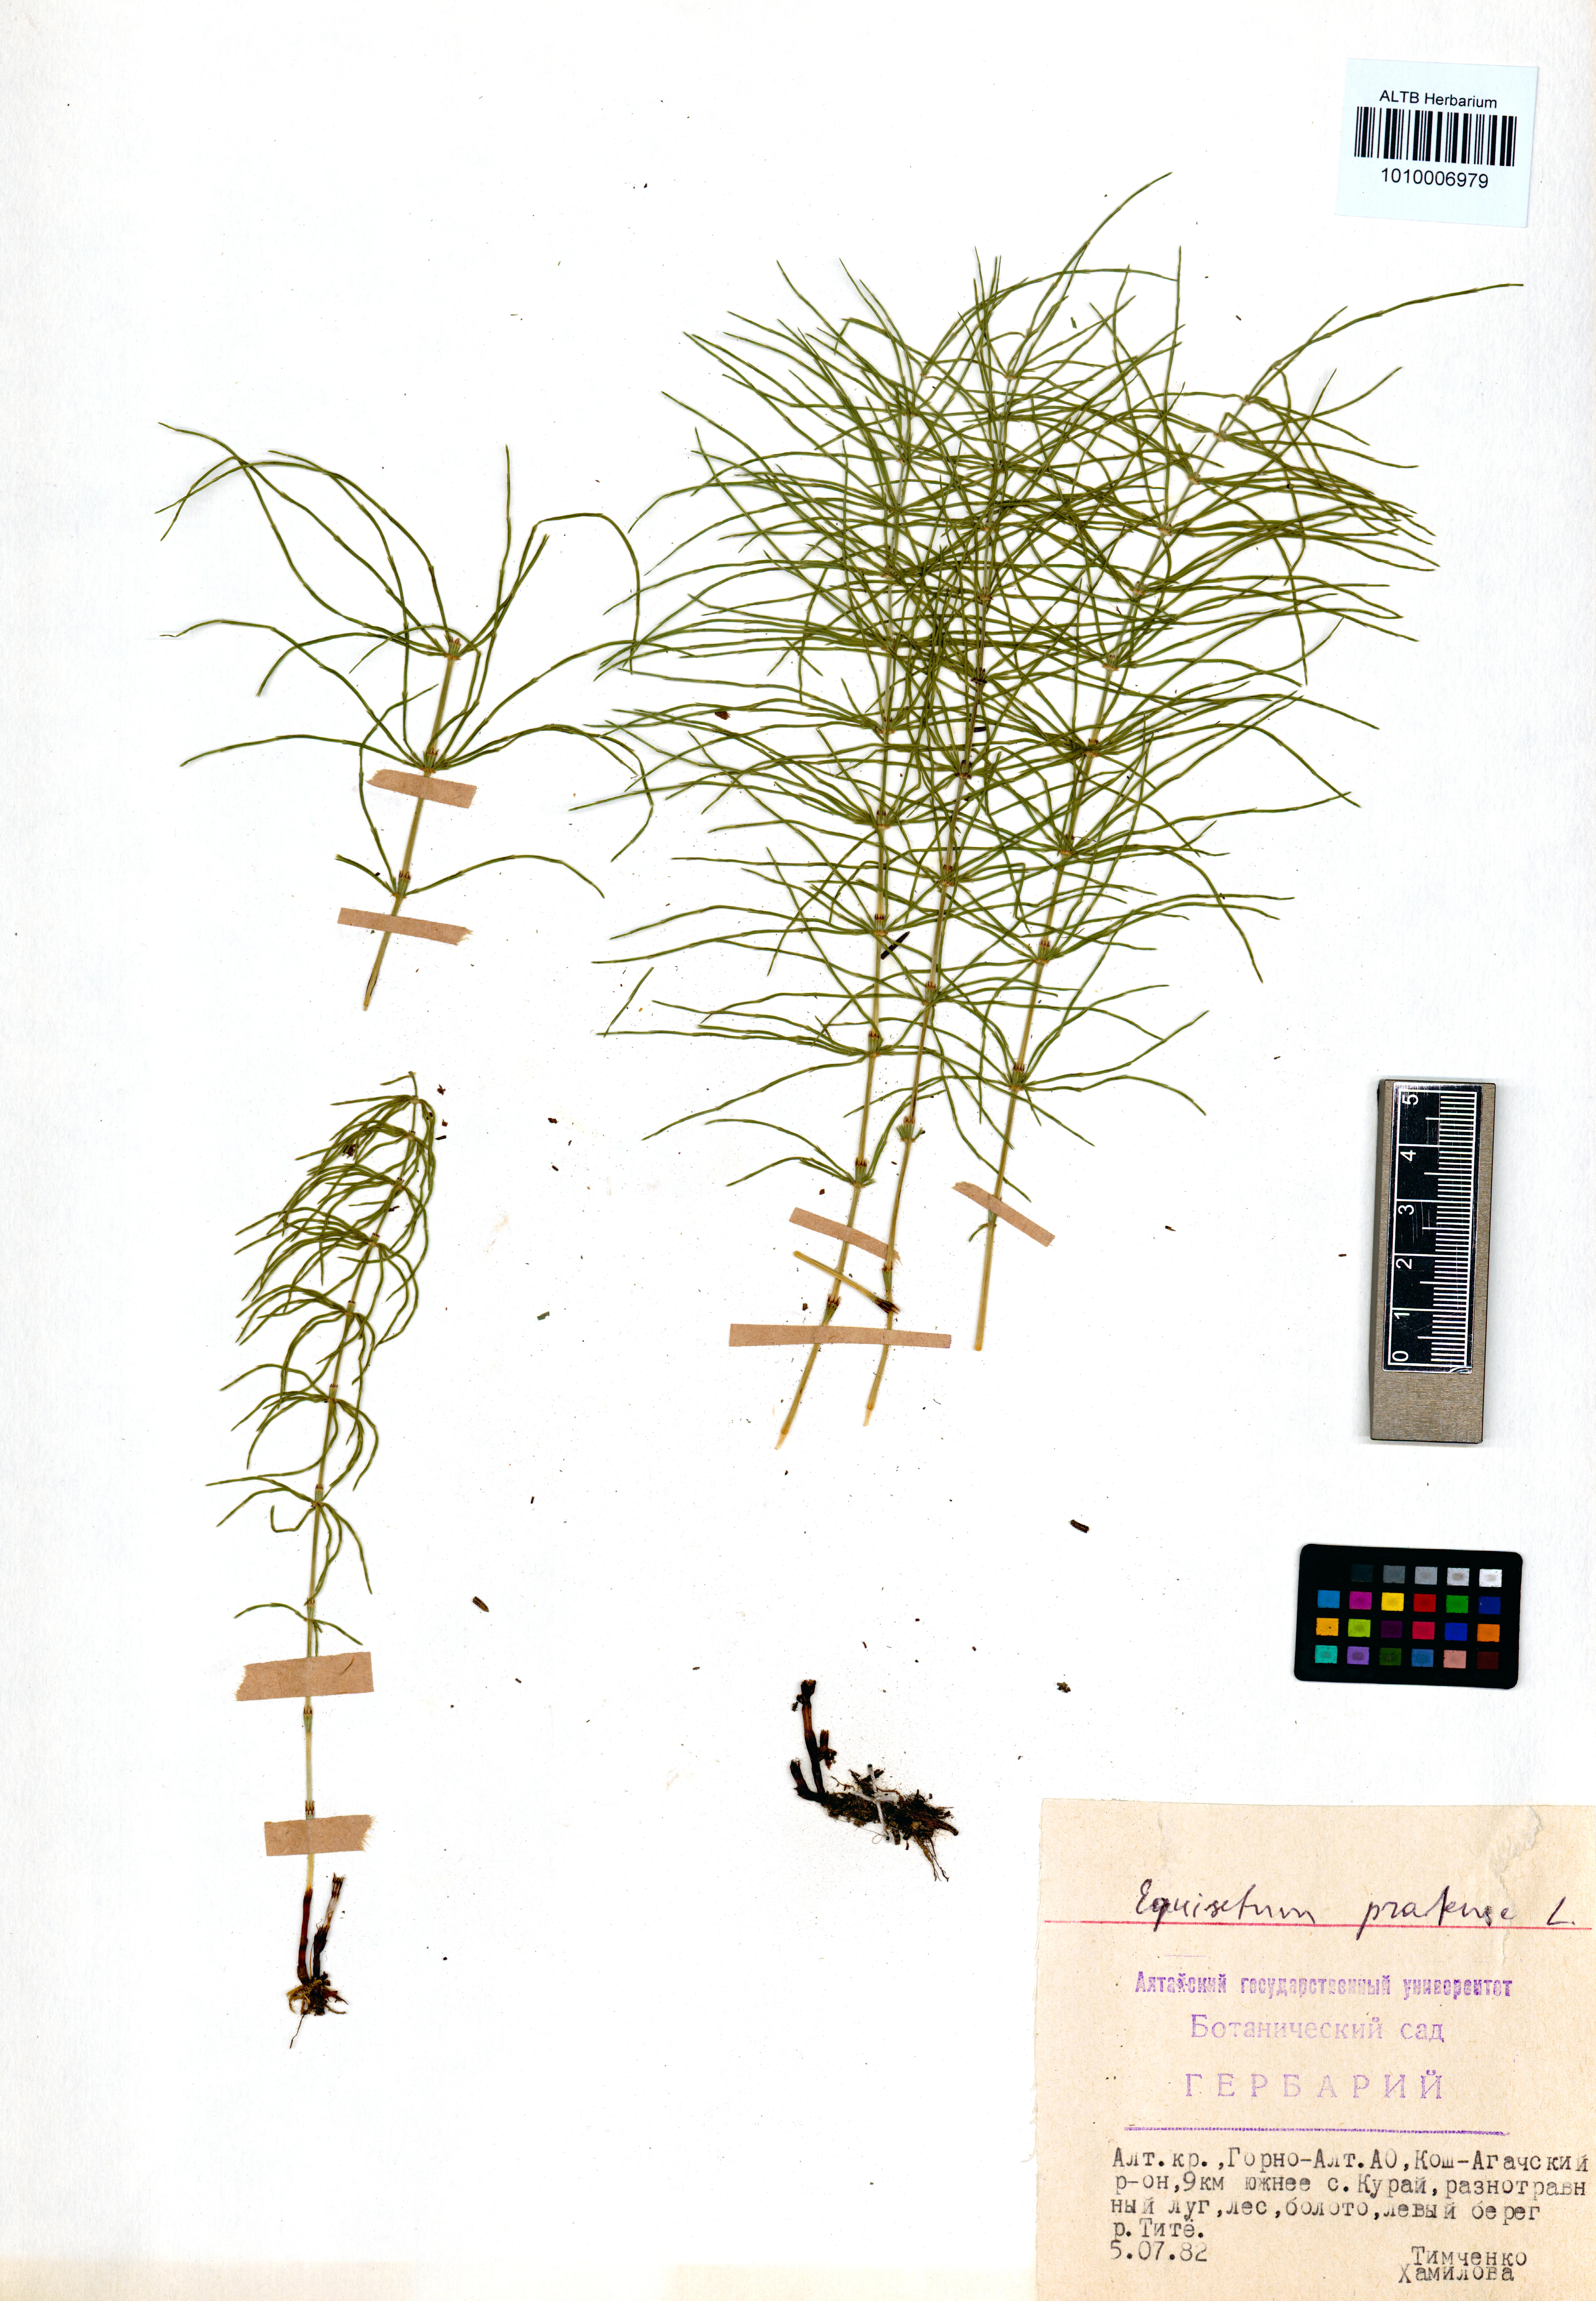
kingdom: Plantae
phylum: Tracheophyta
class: Polypodiopsida
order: Equisetales
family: Equisetaceae
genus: Equisetum
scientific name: Equisetum pratense
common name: Meadow horsetail
